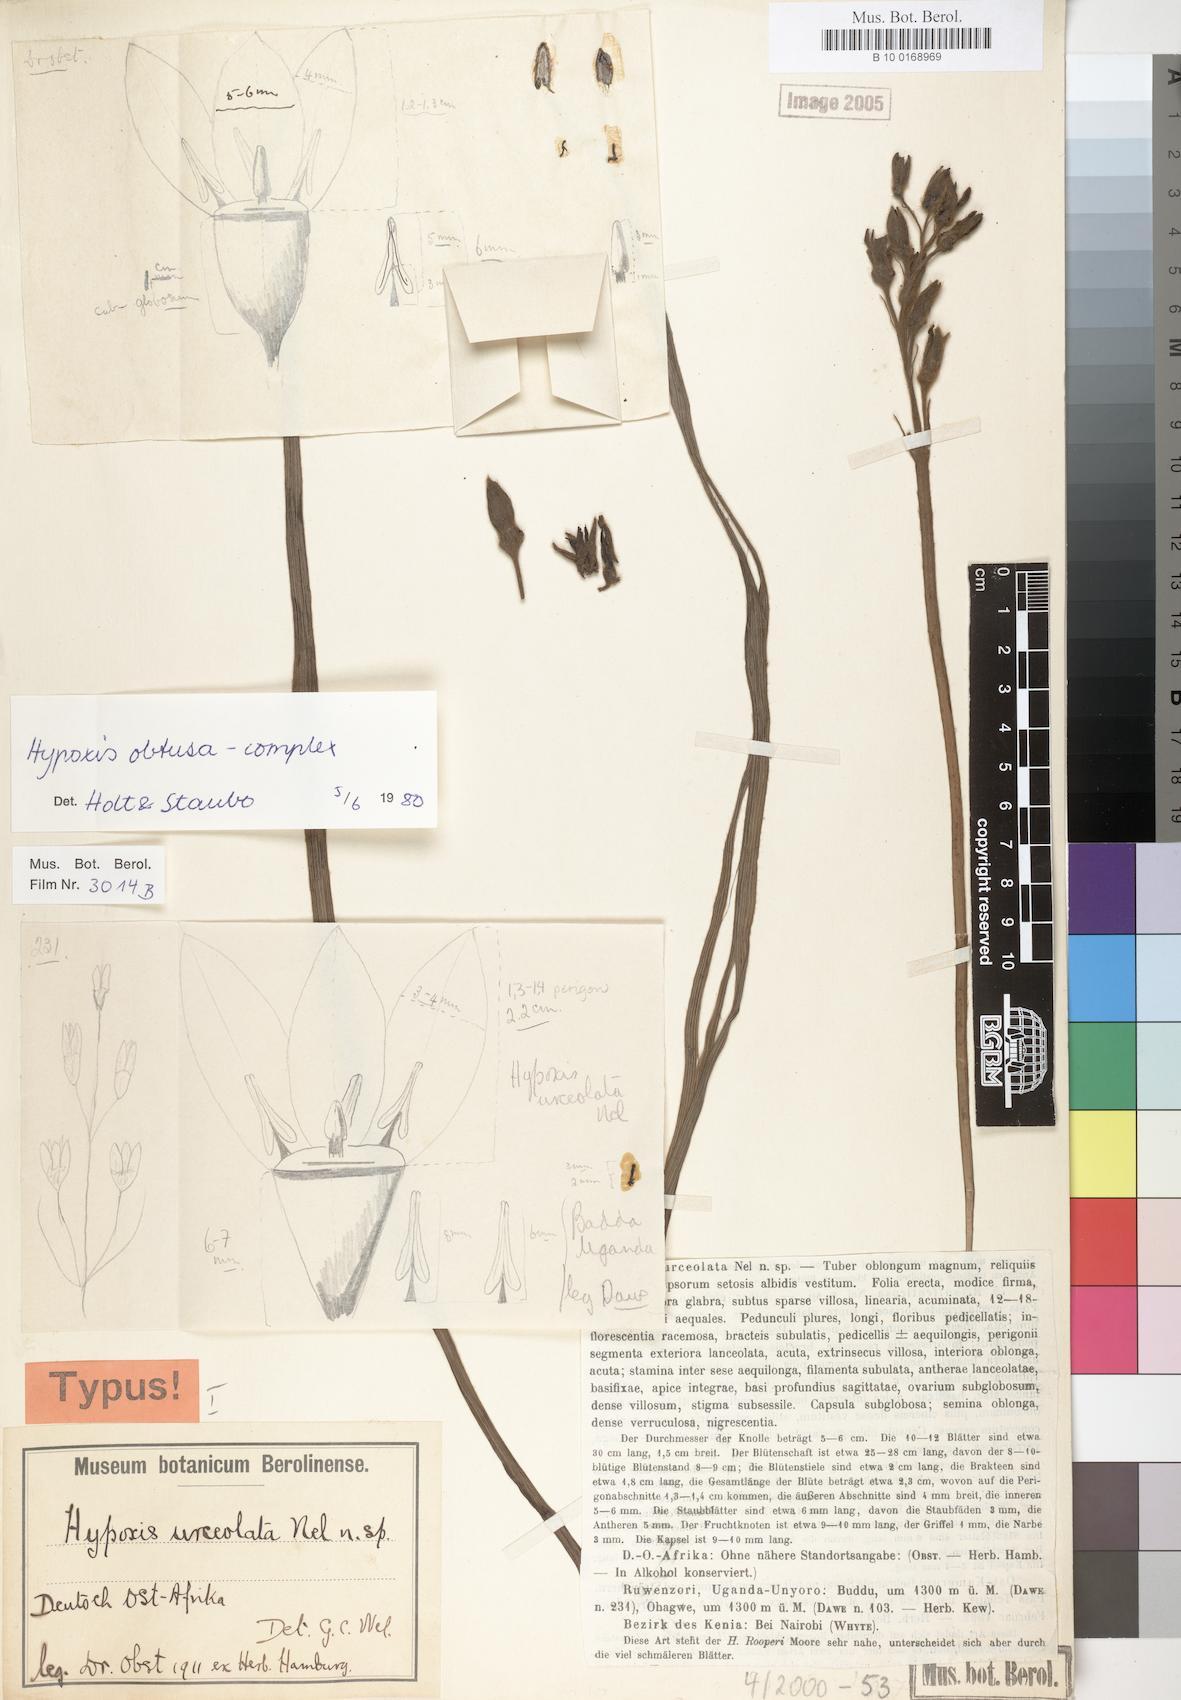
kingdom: Plantae
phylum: Tracheophyta
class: Liliopsida
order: Asparagales
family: Hypoxidaceae
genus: Hypoxis
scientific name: Hypoxis obtusa
